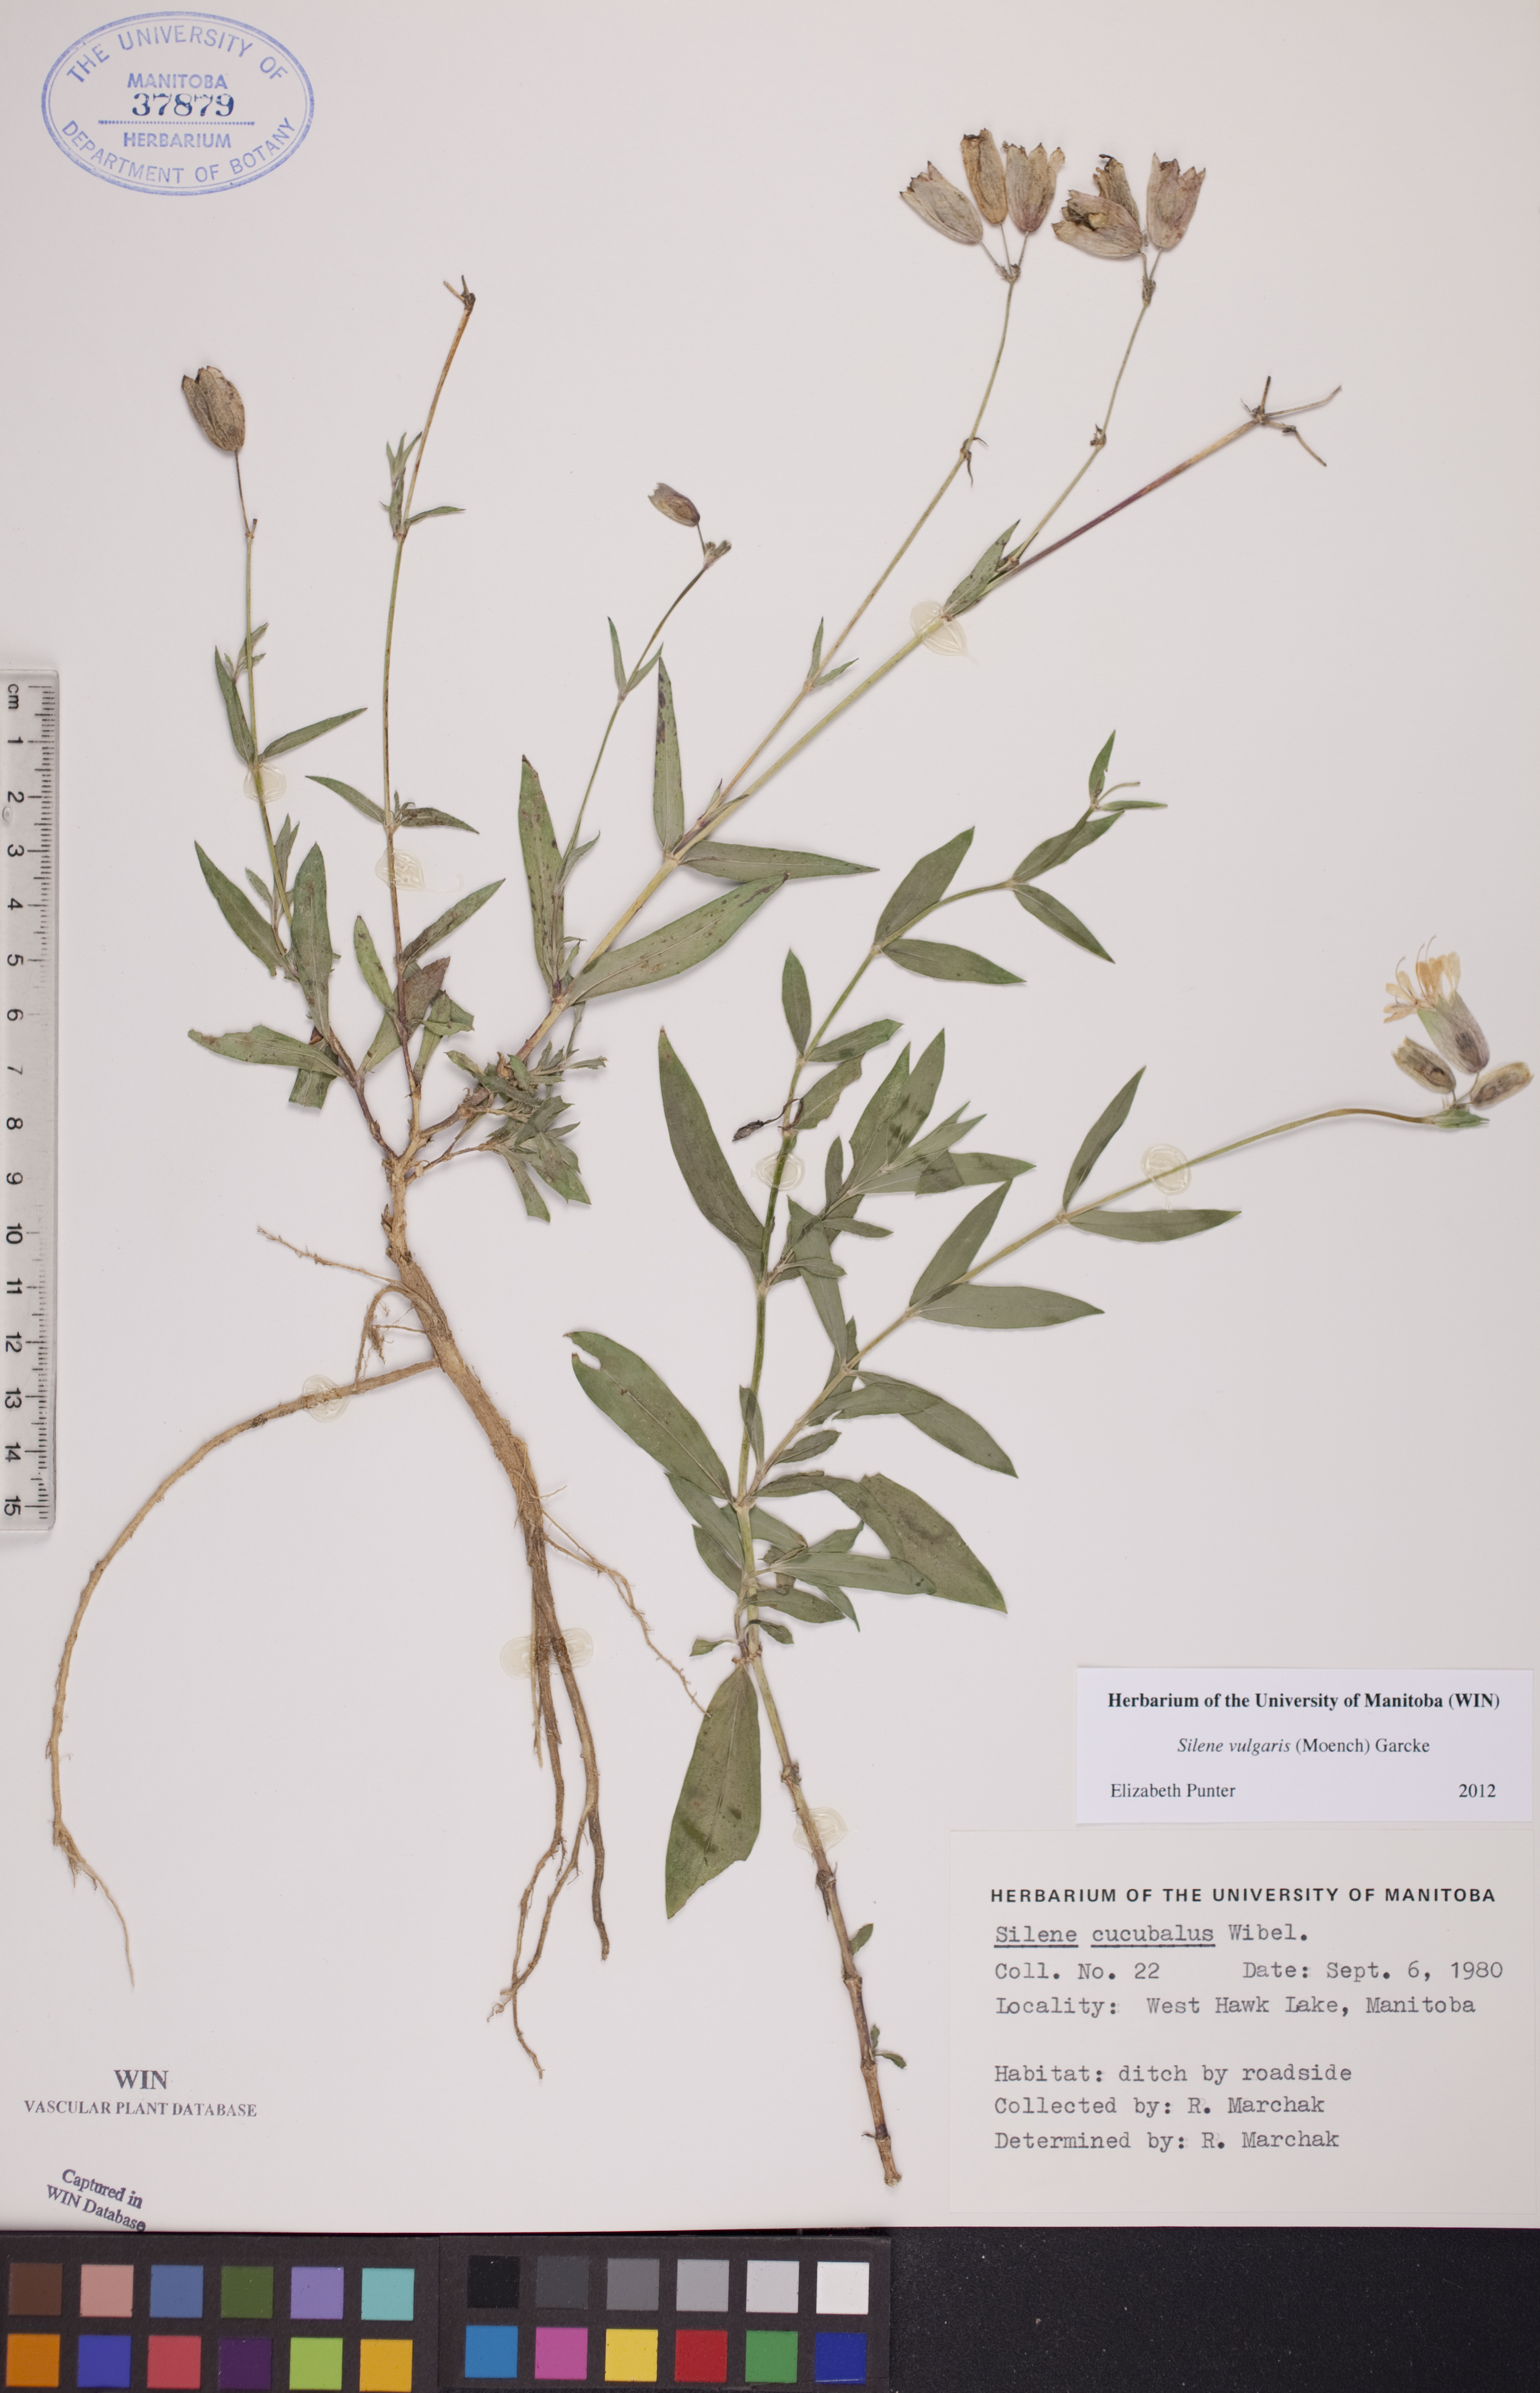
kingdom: Plantae
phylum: Tracheophyta
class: Magnoliopsida
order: Caryophyllales
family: Caryophyllaceae
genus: Silene
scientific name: Silene vulgaris
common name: Bladder campion
